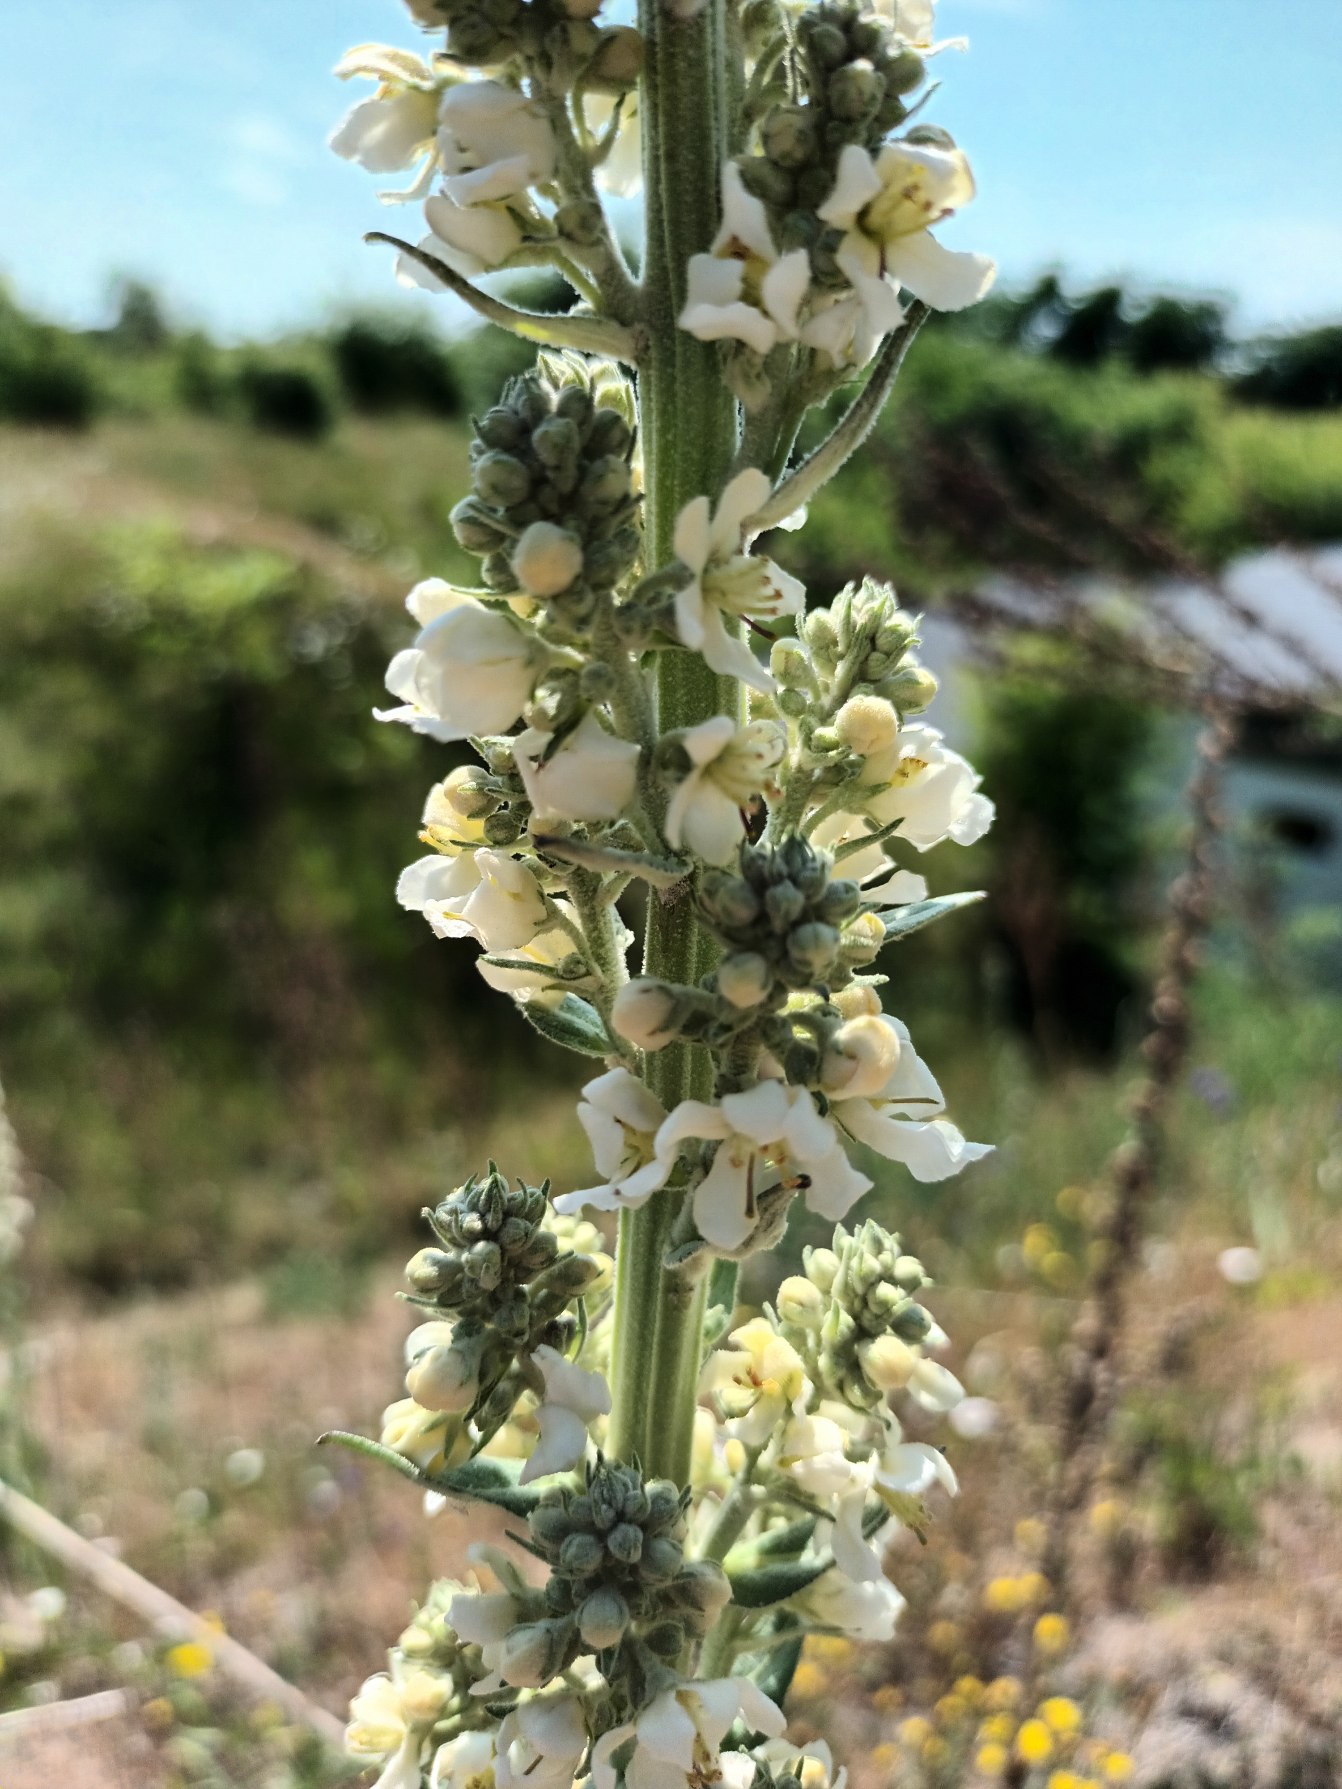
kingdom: Plantae
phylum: Tracheophyta
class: Magnoliopsida
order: Lamiales
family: Scrophulariaceae
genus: Verbascum
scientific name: Verbascum lychnitis
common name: Bleg kongelys
